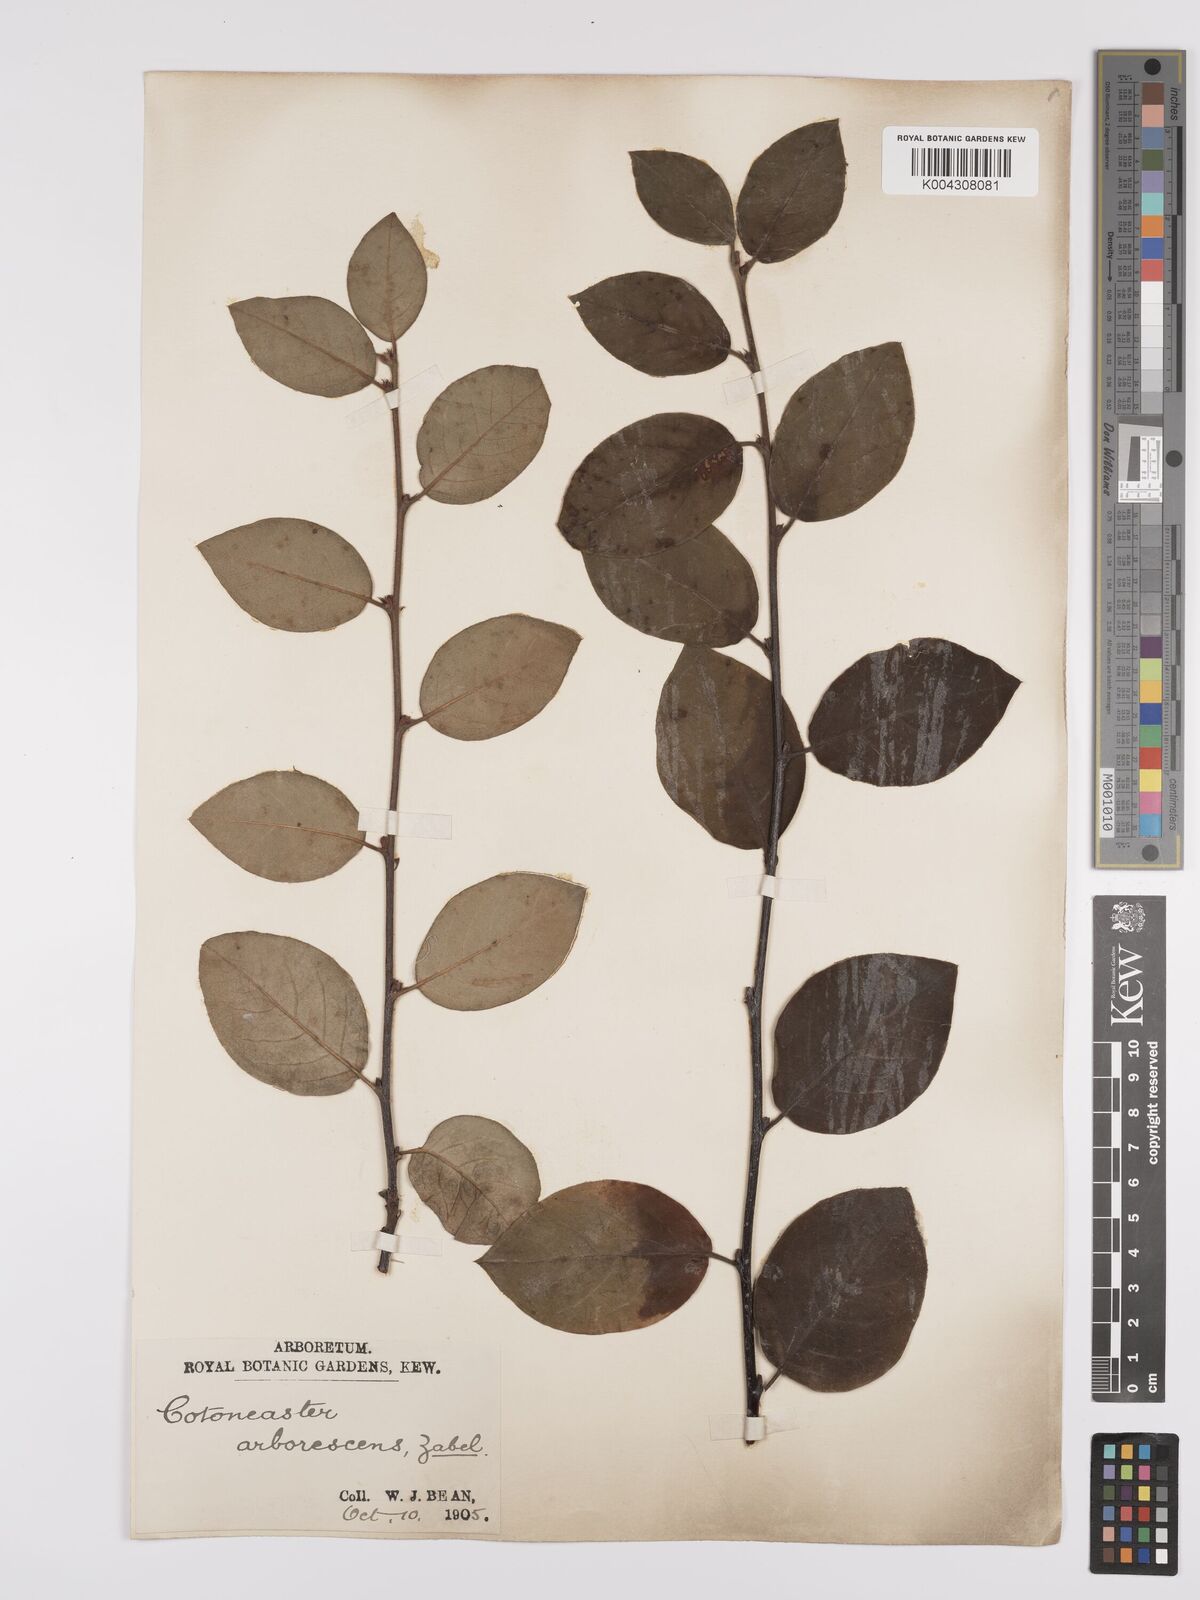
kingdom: Plantae
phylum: Tracheophyta
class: Magnoliopsida
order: Rosales
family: Rosaceae
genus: Cotoneaster
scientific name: Cotoneaster lindleyi
